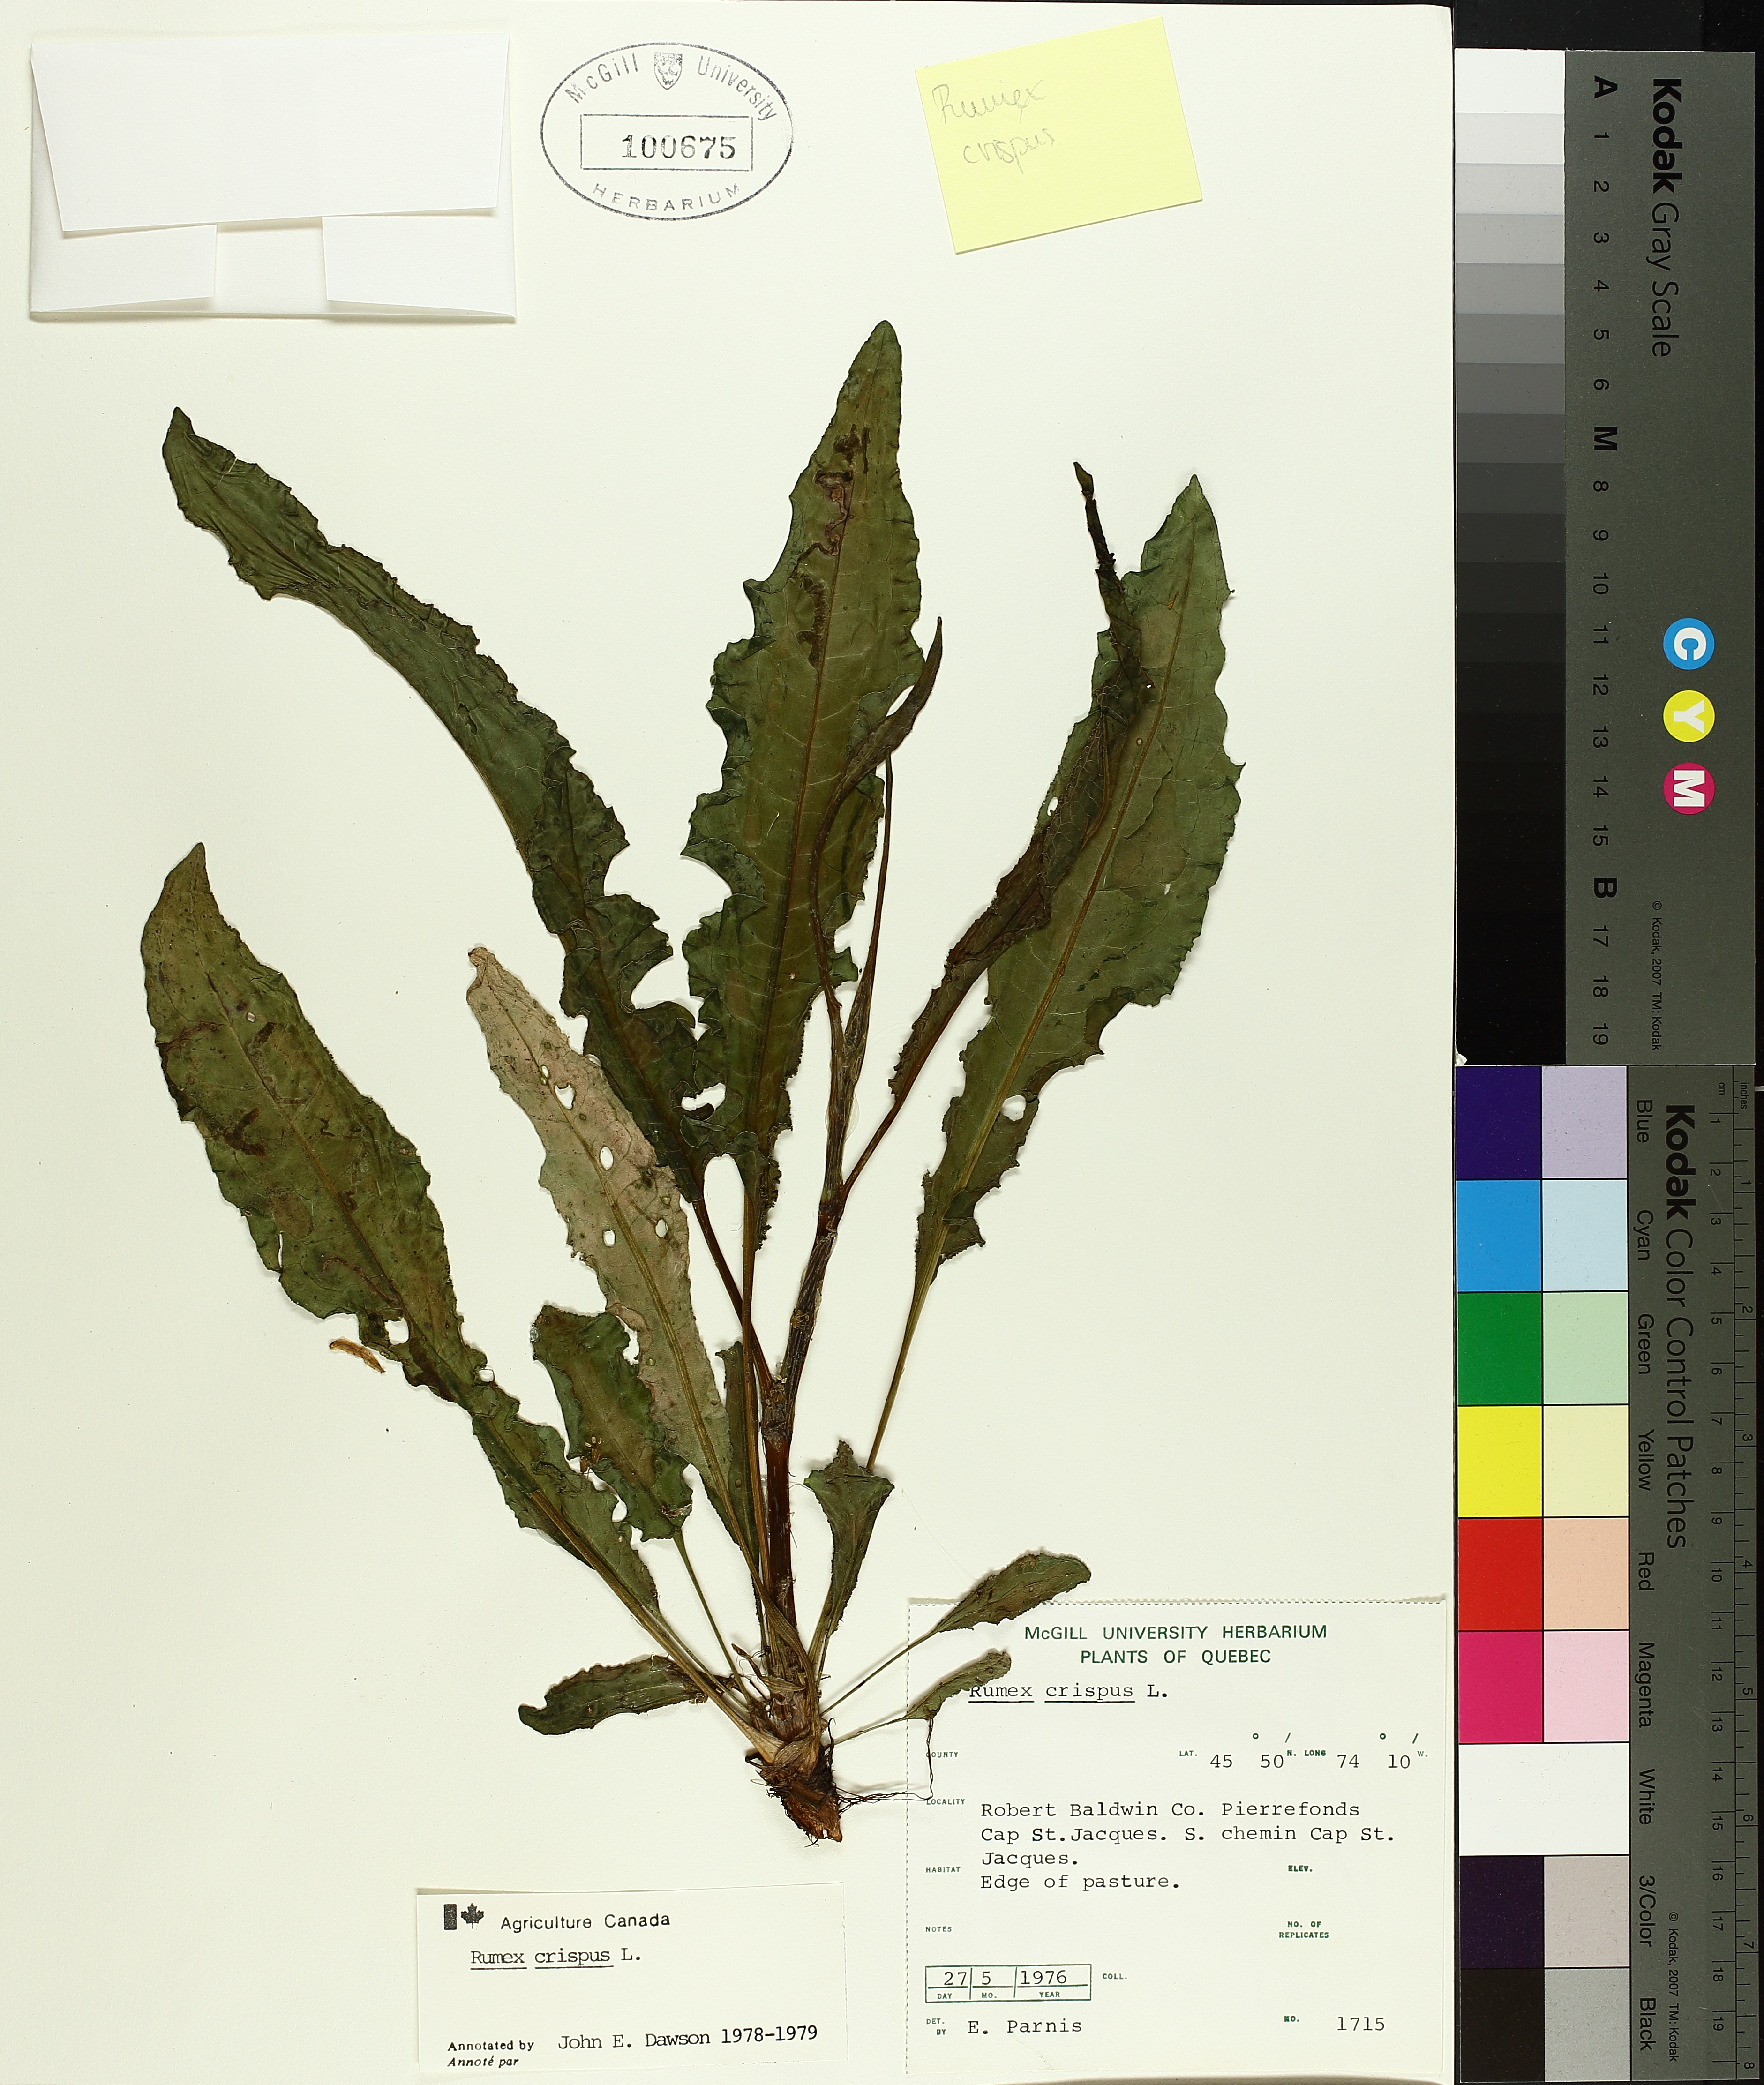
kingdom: Plantae
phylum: Tracheophyta
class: Magnoliopsida
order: Caryophyllales
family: Polygonaceae
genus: Rumex
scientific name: Rumex crispus
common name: Curled dock
